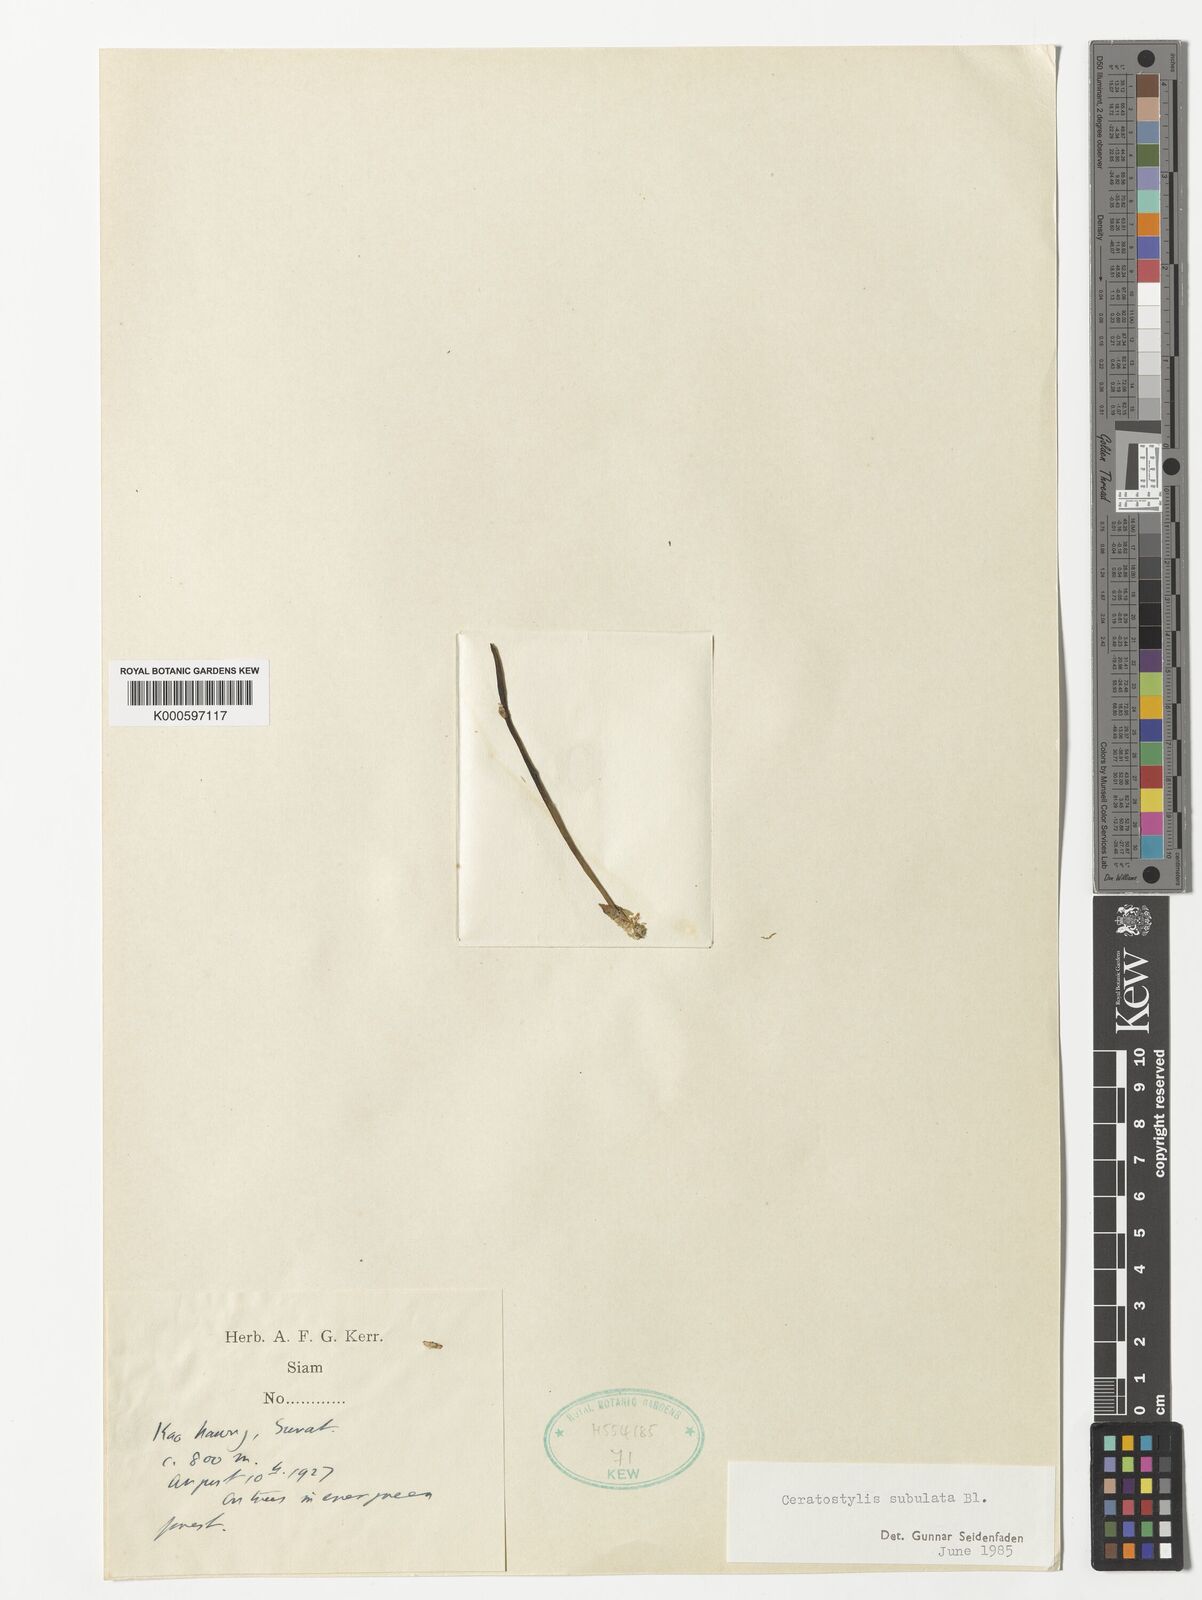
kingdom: Plantae
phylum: Tracheophyta
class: Liliopsida
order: Asparagales
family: Orchidaceae
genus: Ceratostylis
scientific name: Ceratostylis subulata
